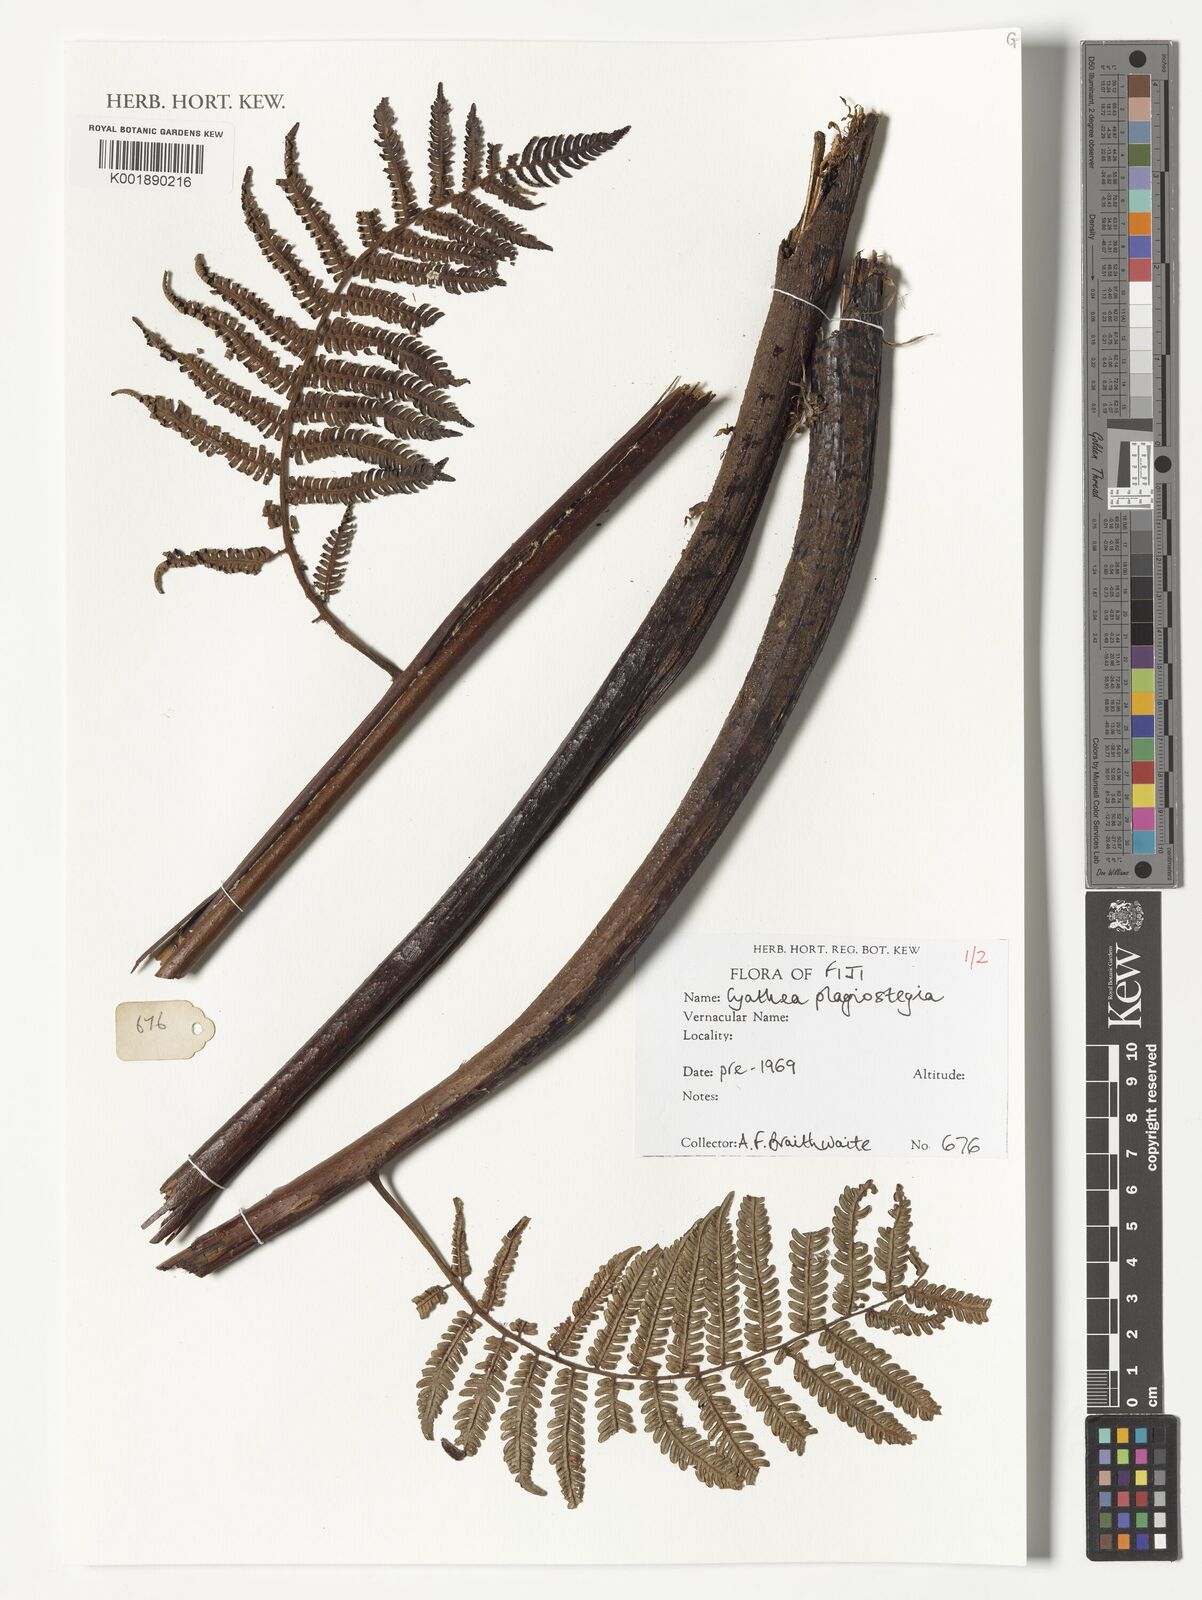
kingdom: Plantae
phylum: Tracheophyta
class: Polypodiopsida
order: Cyatheales
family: Cyatheaceae
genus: Sphaeropteris
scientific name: Sphaeropteris samoensis
